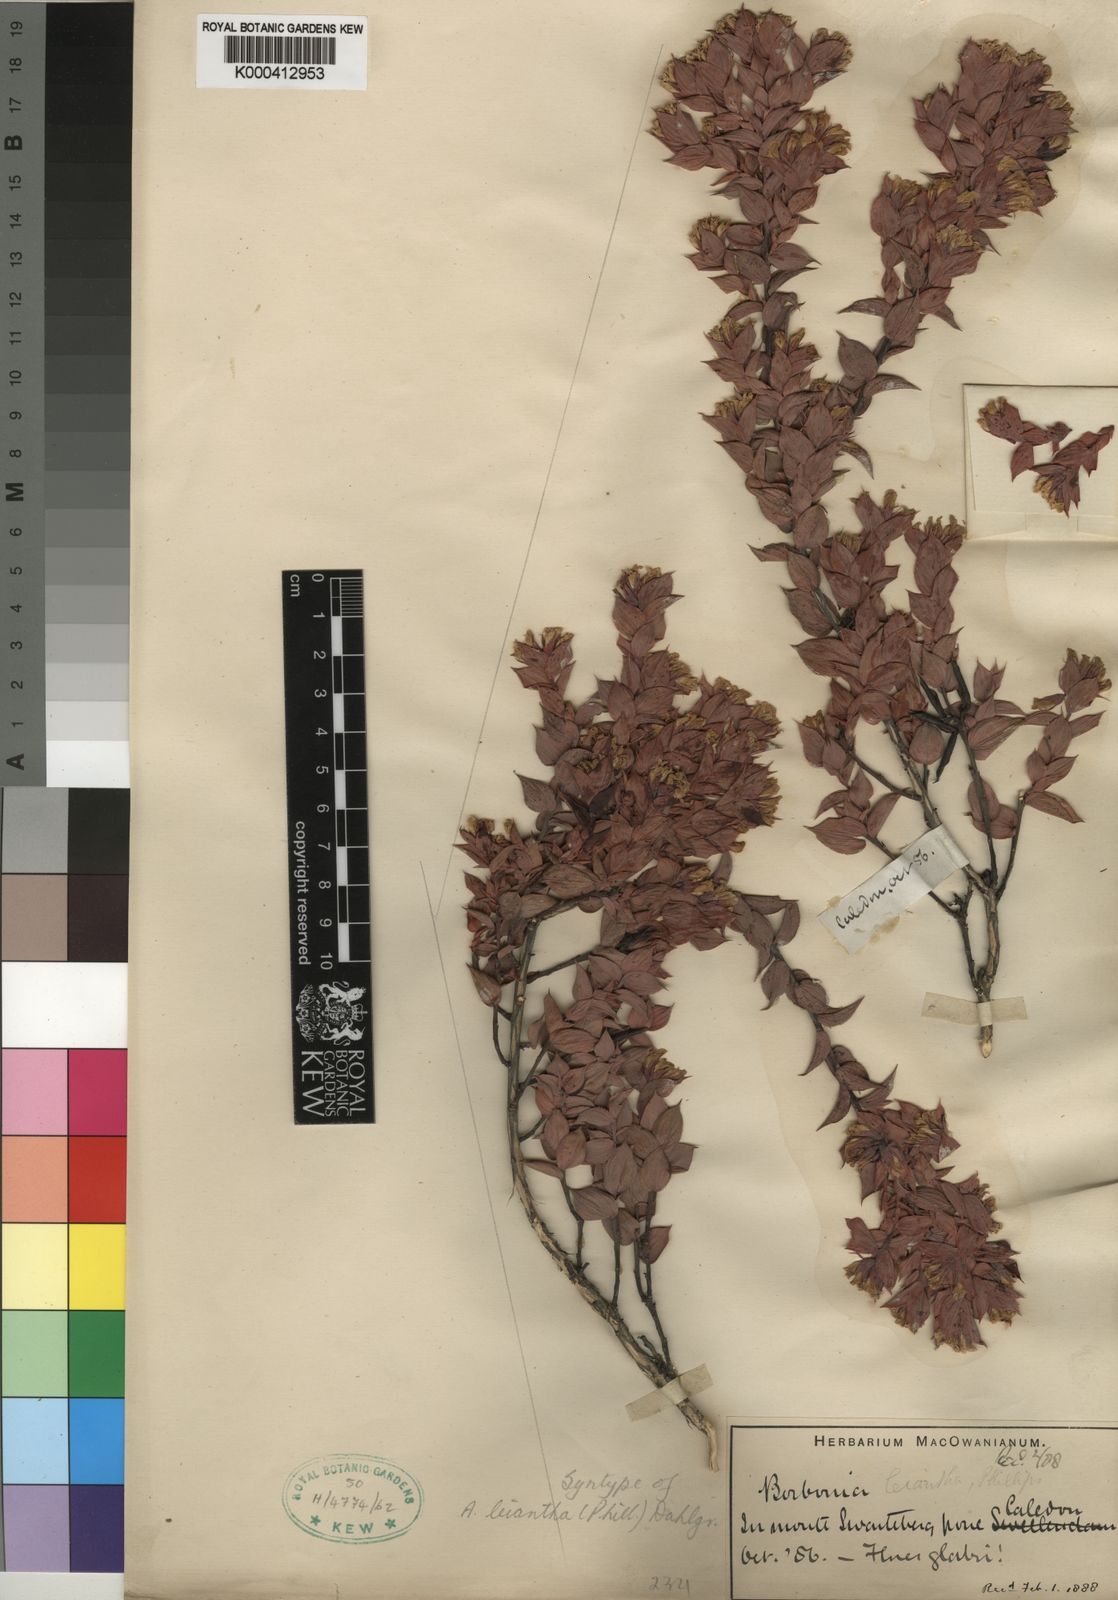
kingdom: Plantae
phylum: Tracheophyta
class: Magnoliopsida
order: Fabales
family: Fabaceae
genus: Aspalathus
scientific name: Aspalathus crenata
